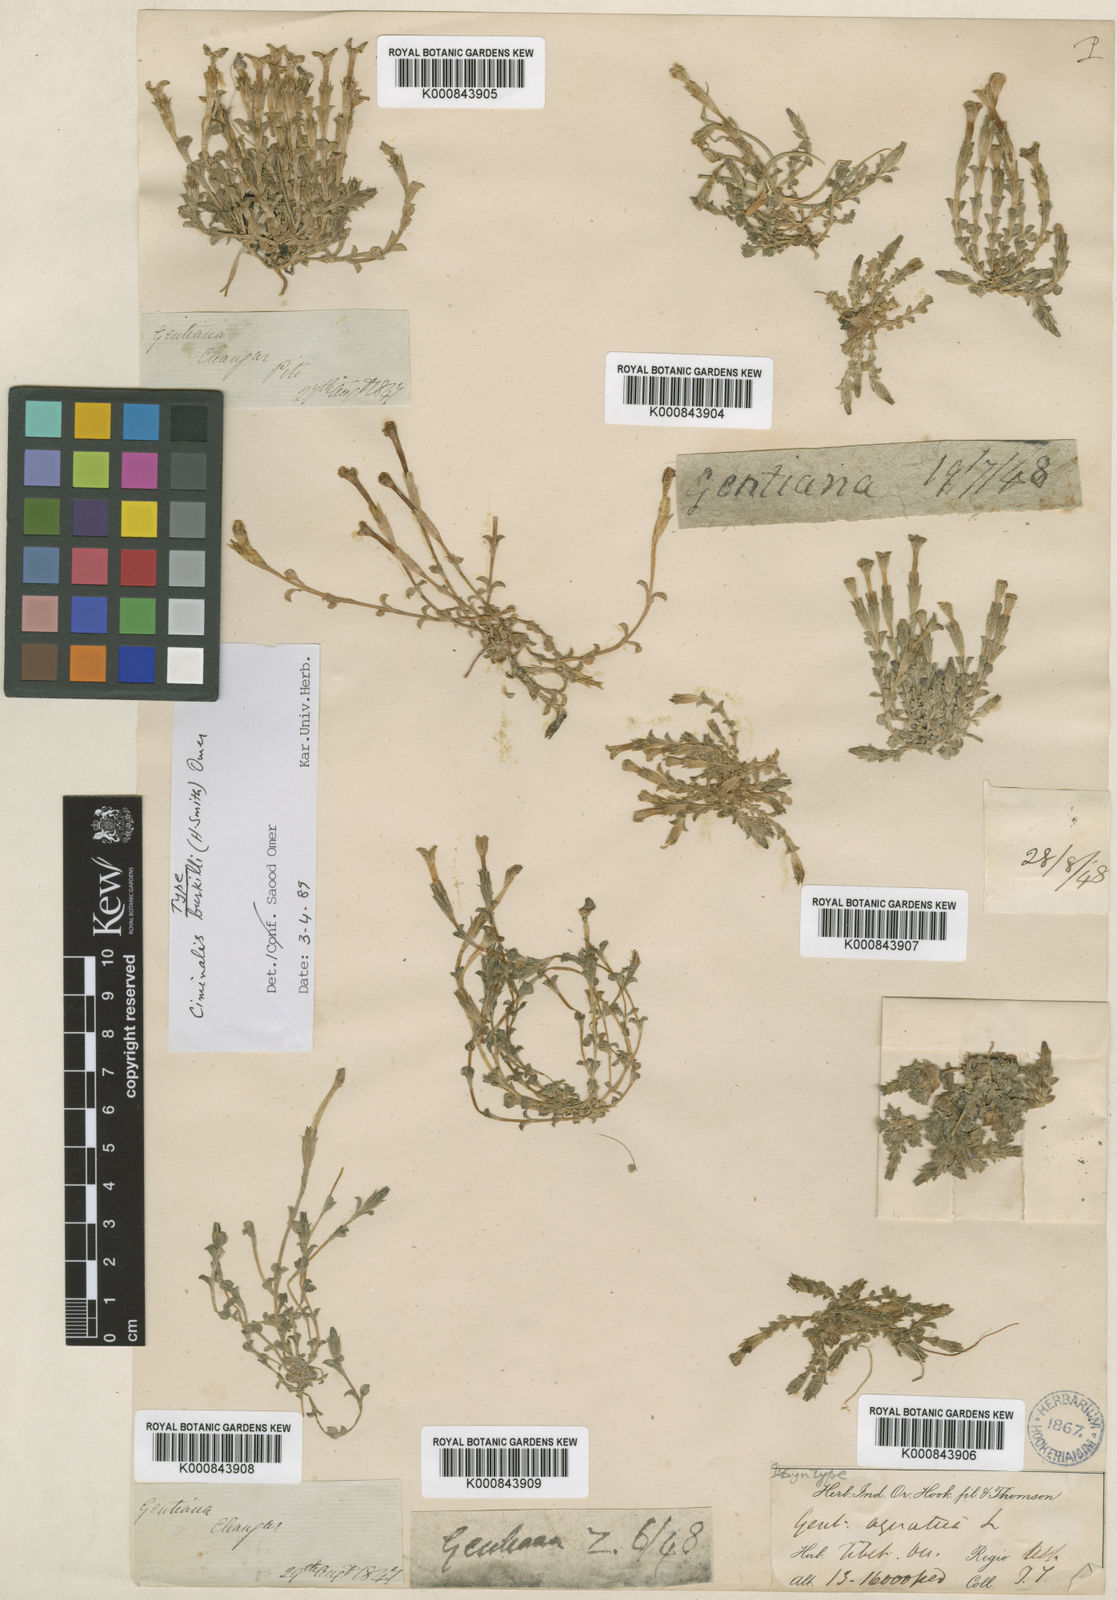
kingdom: Plantae
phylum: Tracheophyta
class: Magnoliopsida
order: Gentianales
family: Gentianaceae
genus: Gentiana
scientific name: Gentiana aquatica
